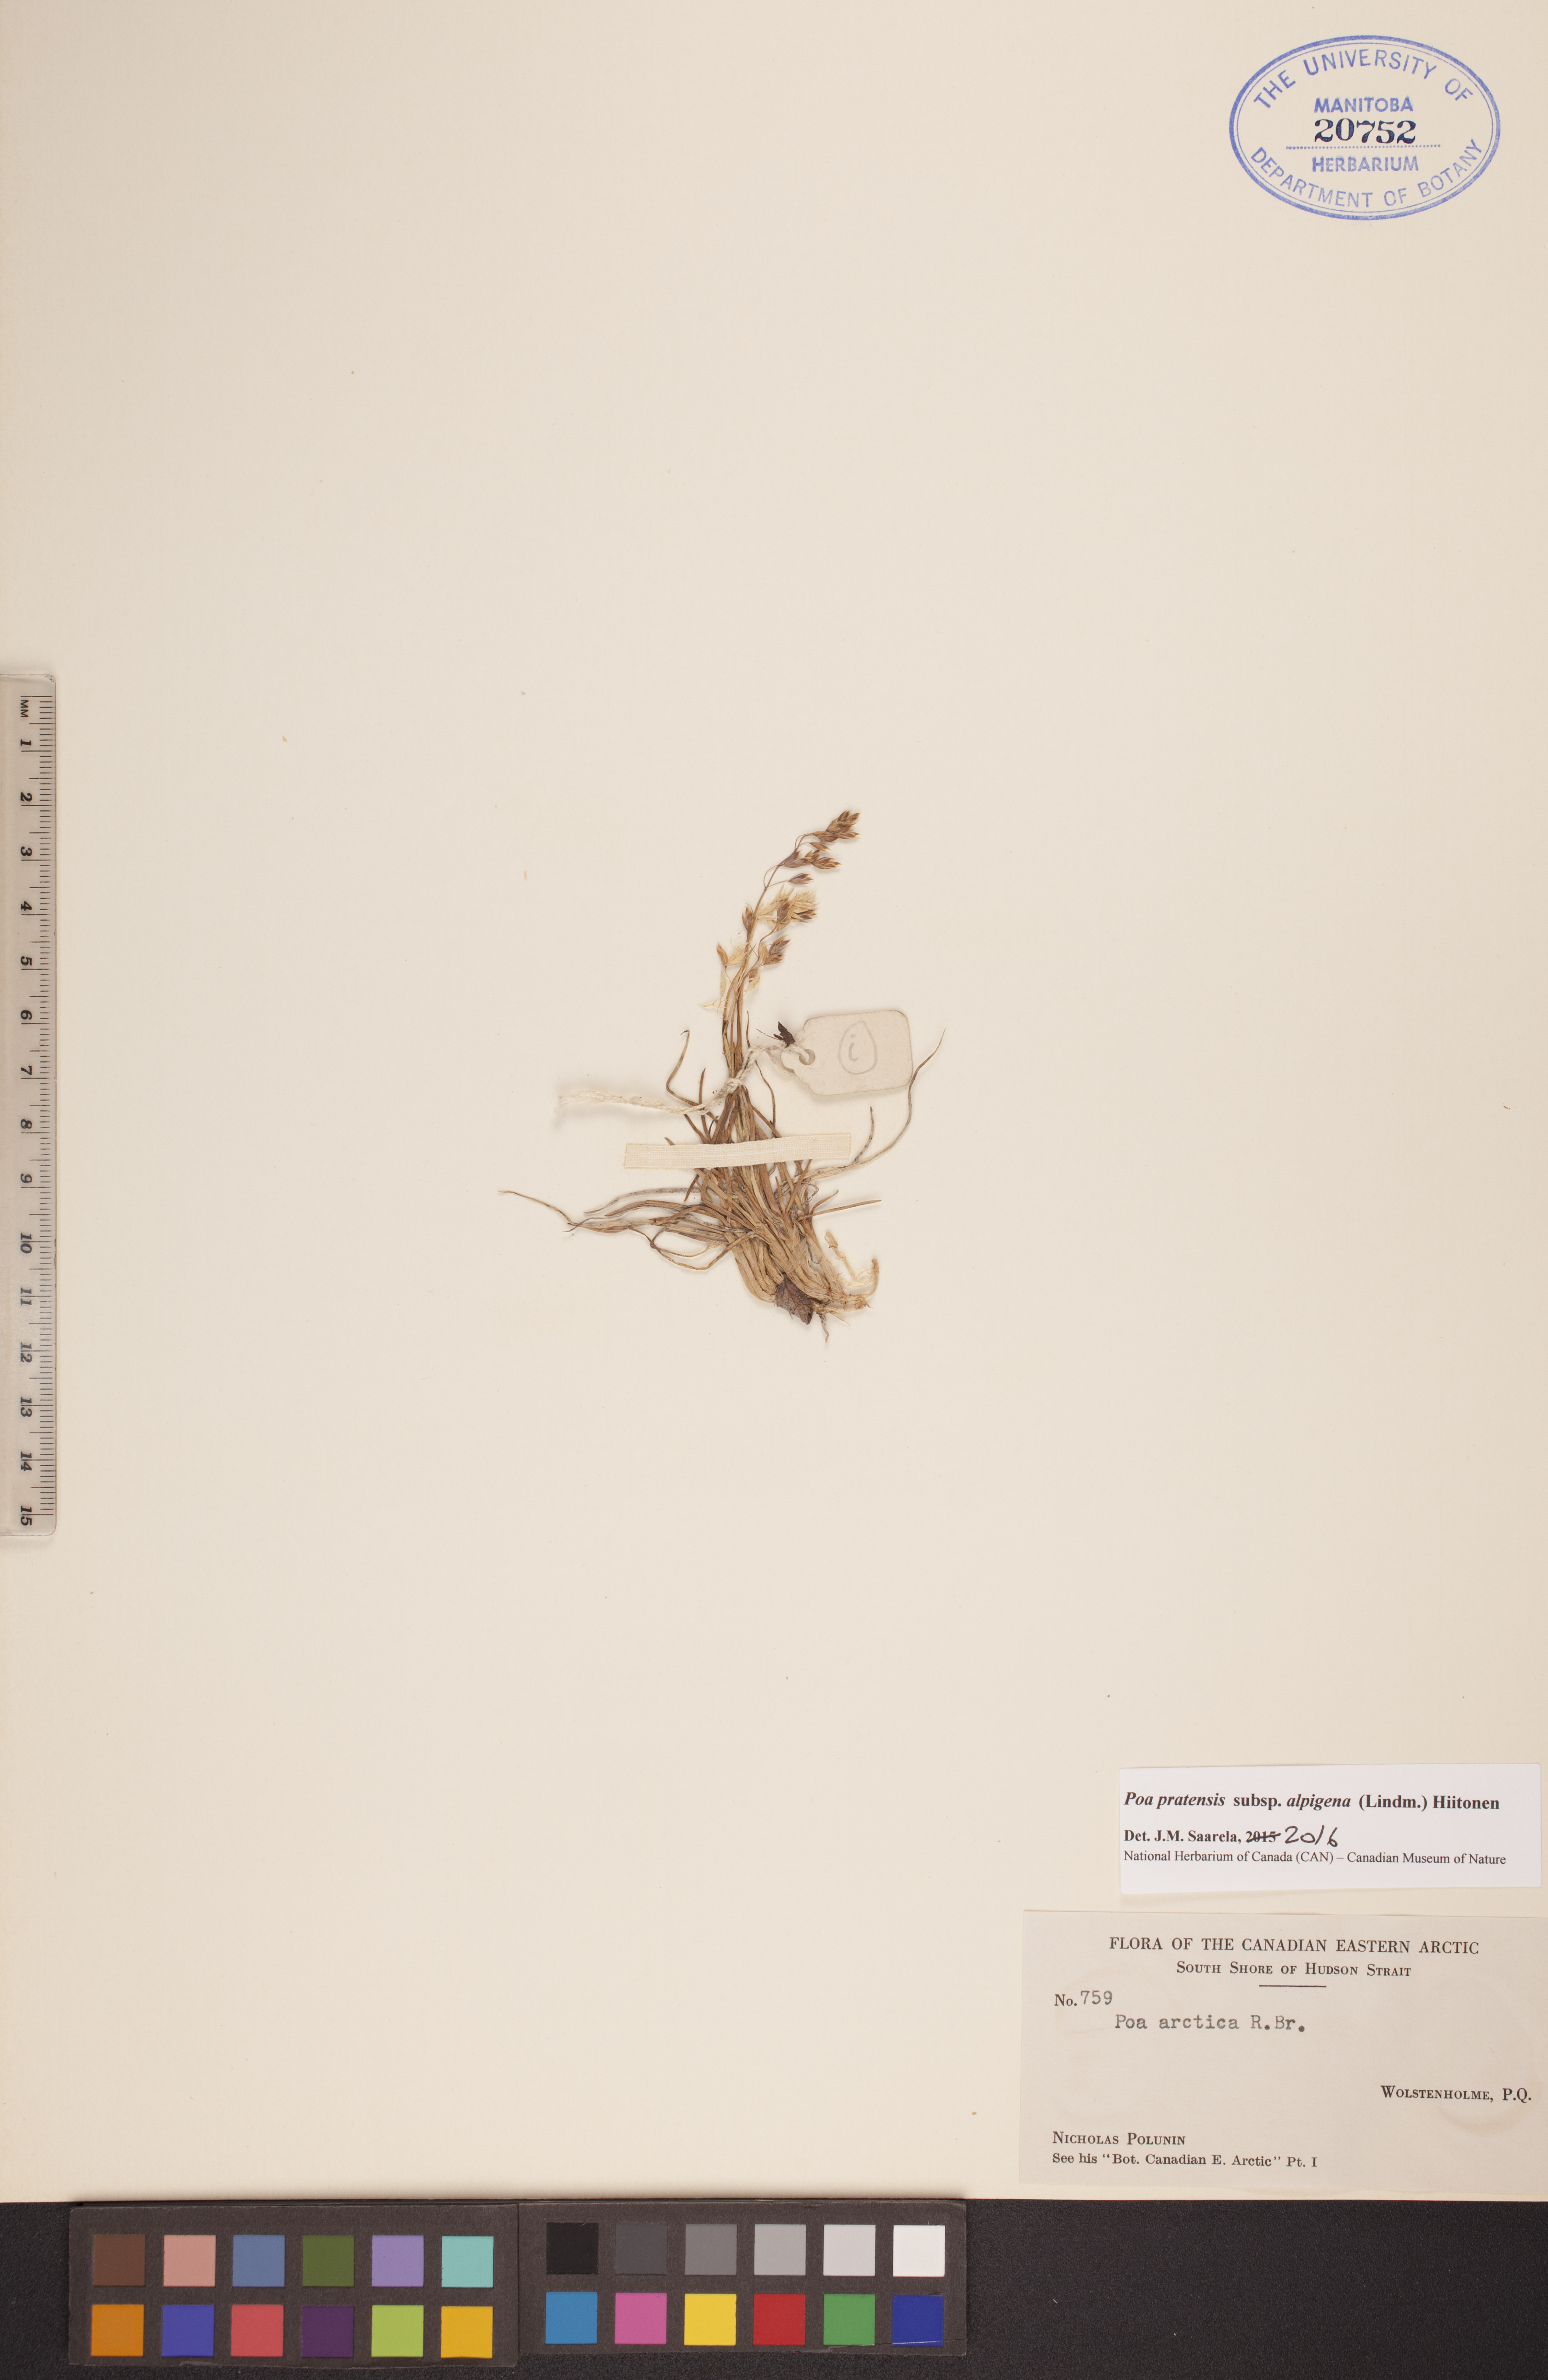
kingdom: Plantae
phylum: Tracheophyta
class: Liliopsida
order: Poales
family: Poaceae
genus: Poa
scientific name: Poa alpigena
